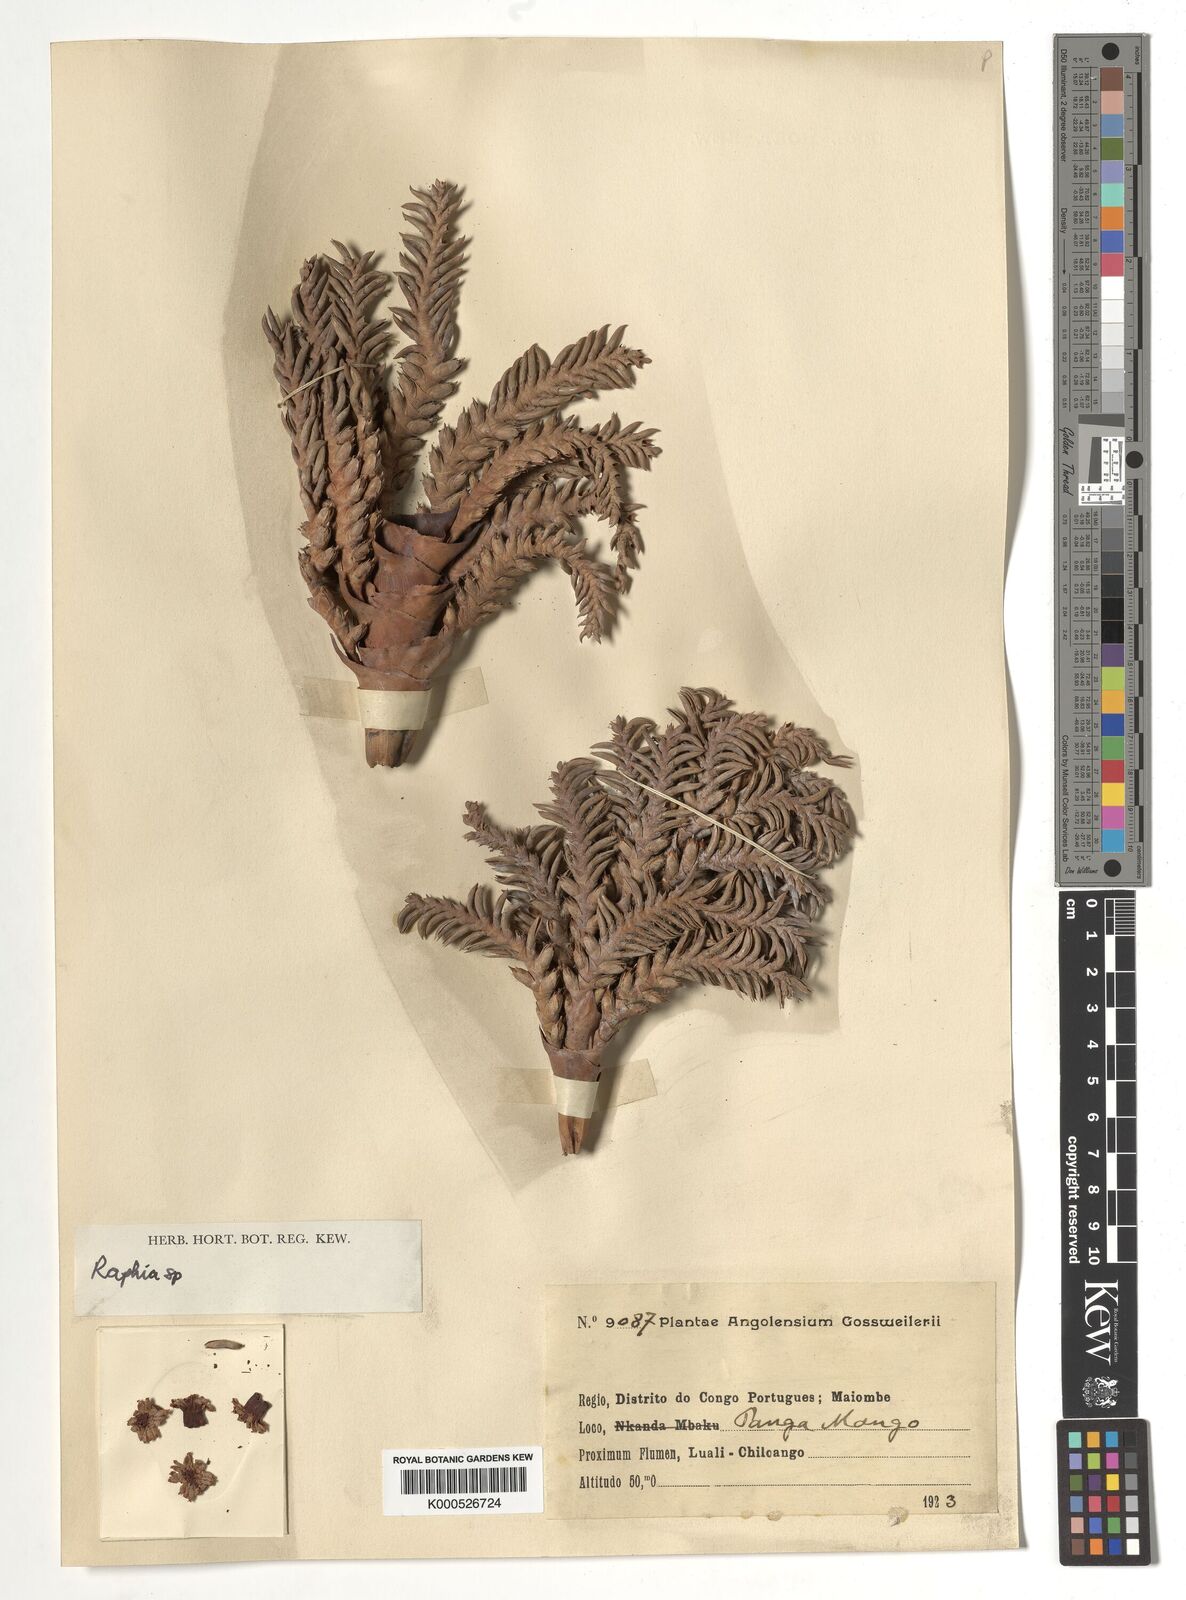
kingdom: Plantae
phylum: Tracheophyta
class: Liliopsida
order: Arecales
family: Arecaceae
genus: Raphia
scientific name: Raphia
